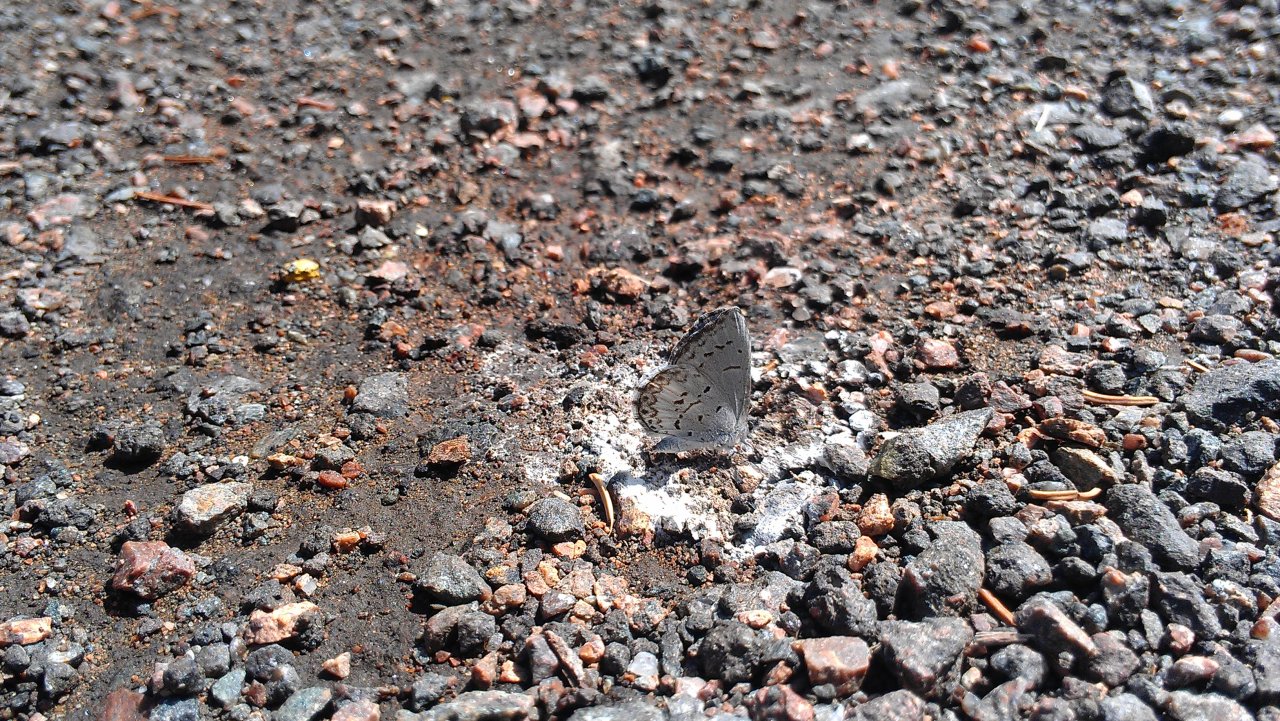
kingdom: Animalia
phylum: Arthropoda
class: Insecta
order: Lepidoptera
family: Lycaenidae
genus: Celastrina
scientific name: Celastrina
